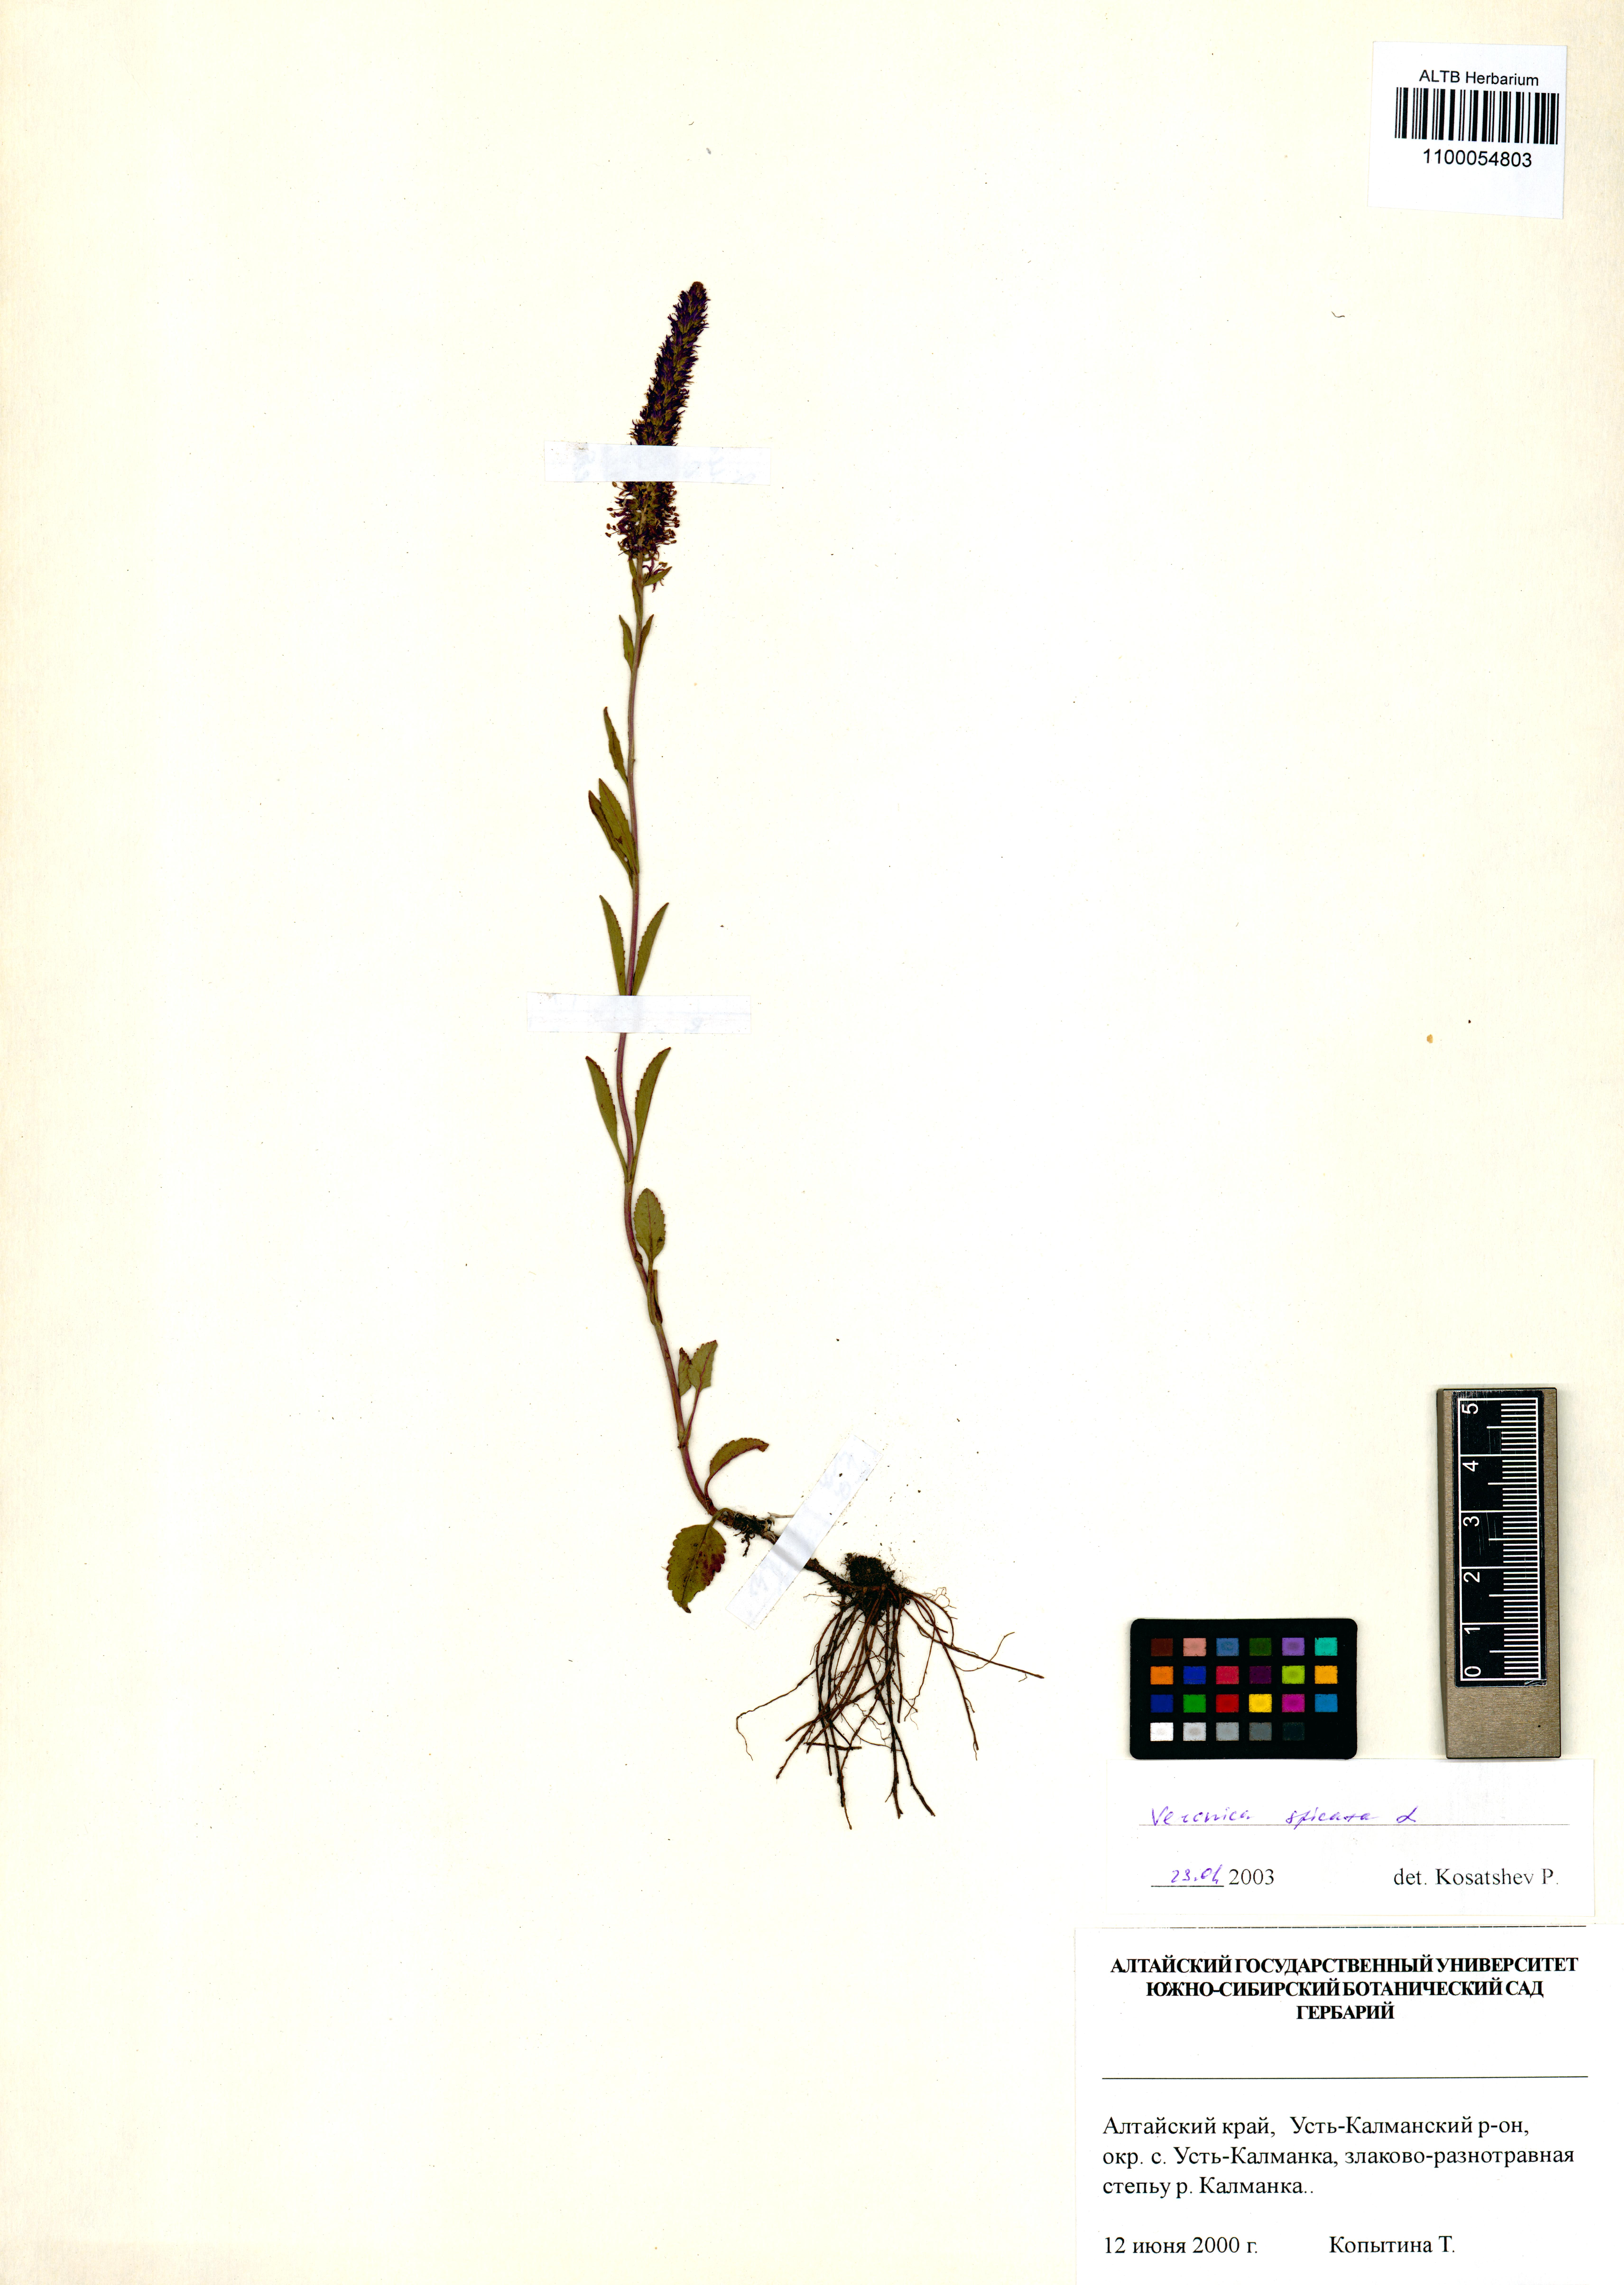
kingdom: Plantae
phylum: Tracheophyta
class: Magnoliopsida
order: Lamiales
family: Plantaginaceae
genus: Veronica
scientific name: Veronica spicata
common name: Spiked speedwell
